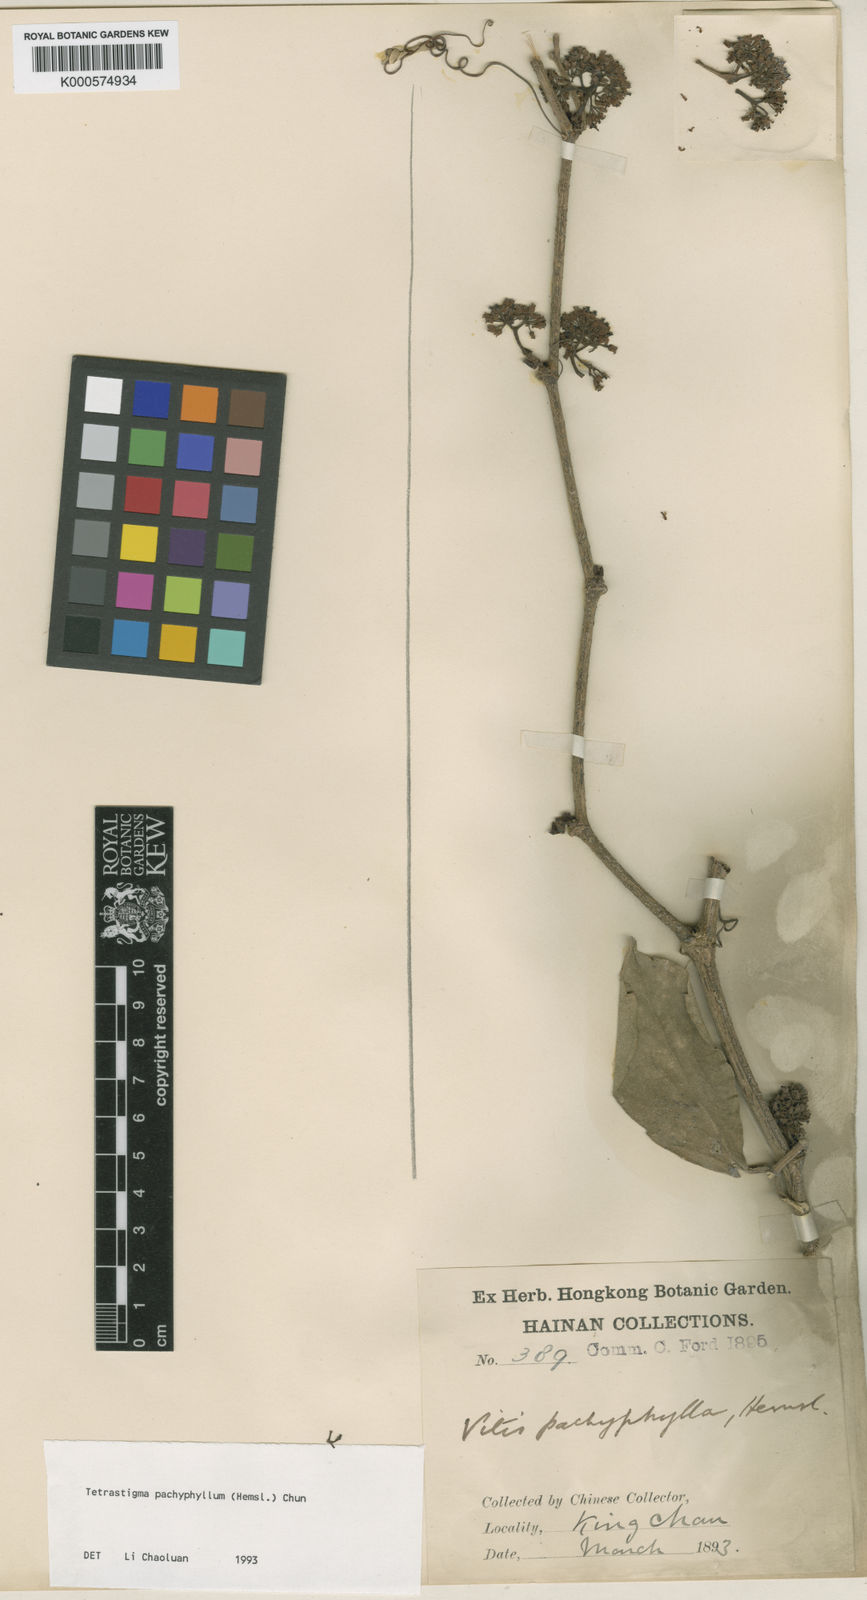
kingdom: Plantae
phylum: Tracheophyta
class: Magnoliopsida
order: Vitales
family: Vitaceae
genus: Tetrastigma
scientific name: Tetrastigma pachyphyllum
